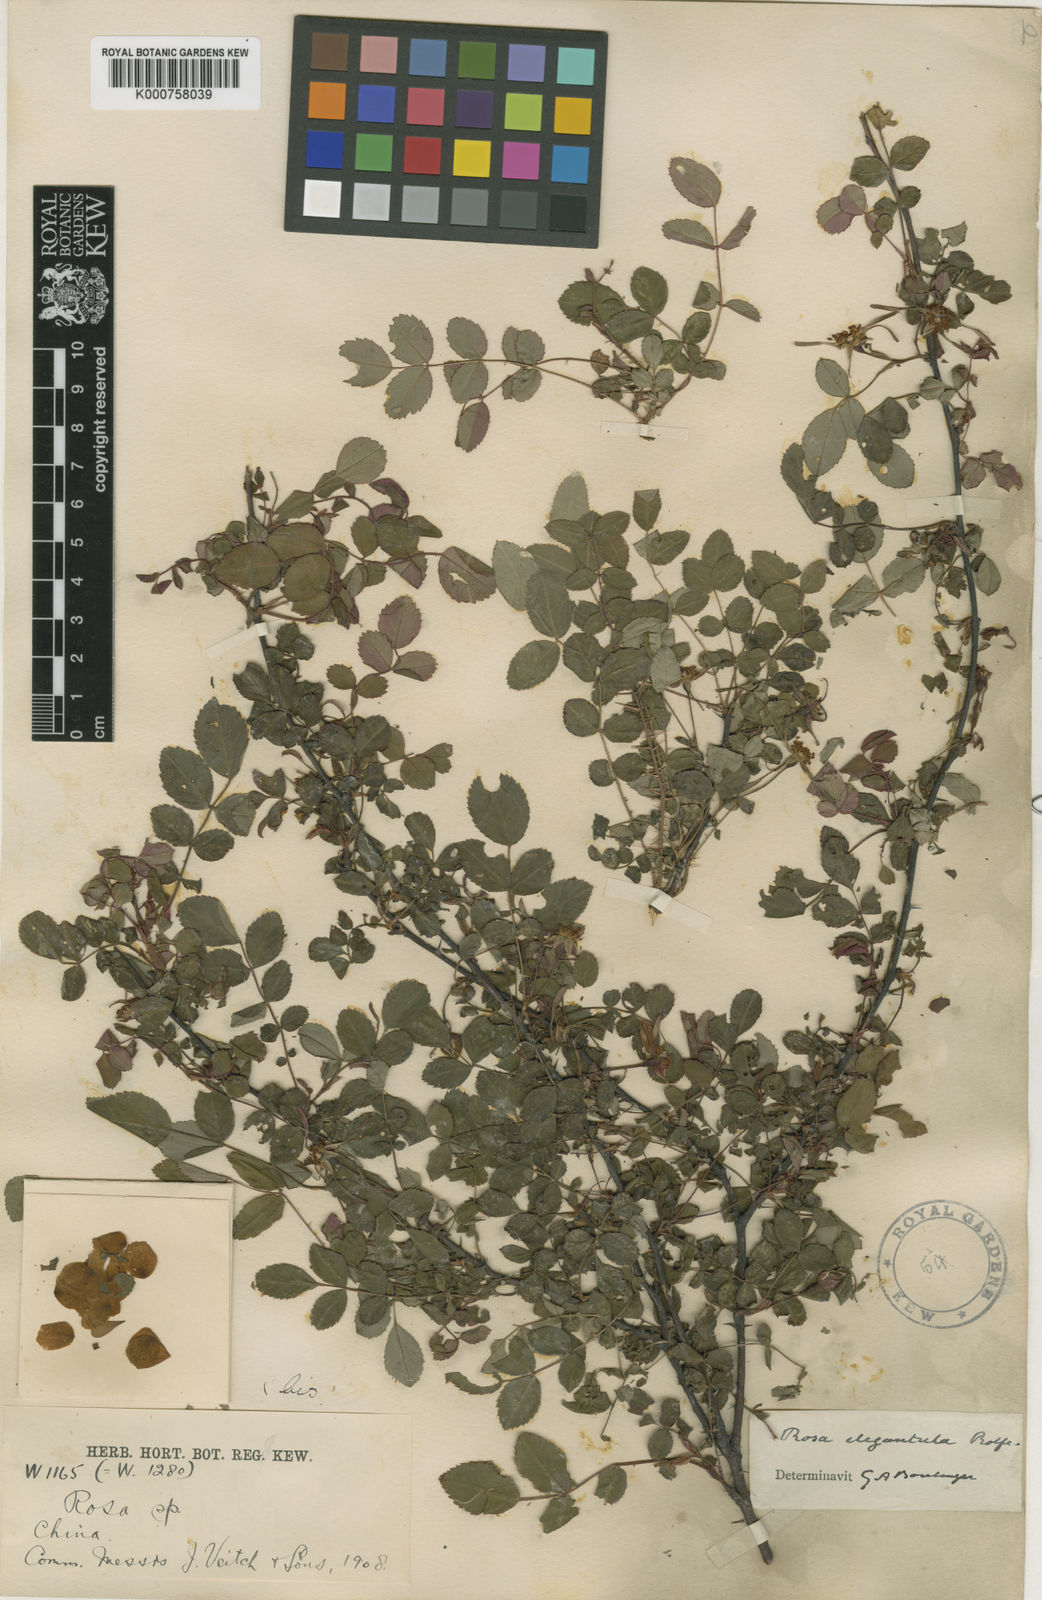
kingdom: Plantae
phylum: Tracheophyta
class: Magnoliopsida
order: Rosales
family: Rosaceae
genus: Rosa
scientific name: Rosa persetosa
